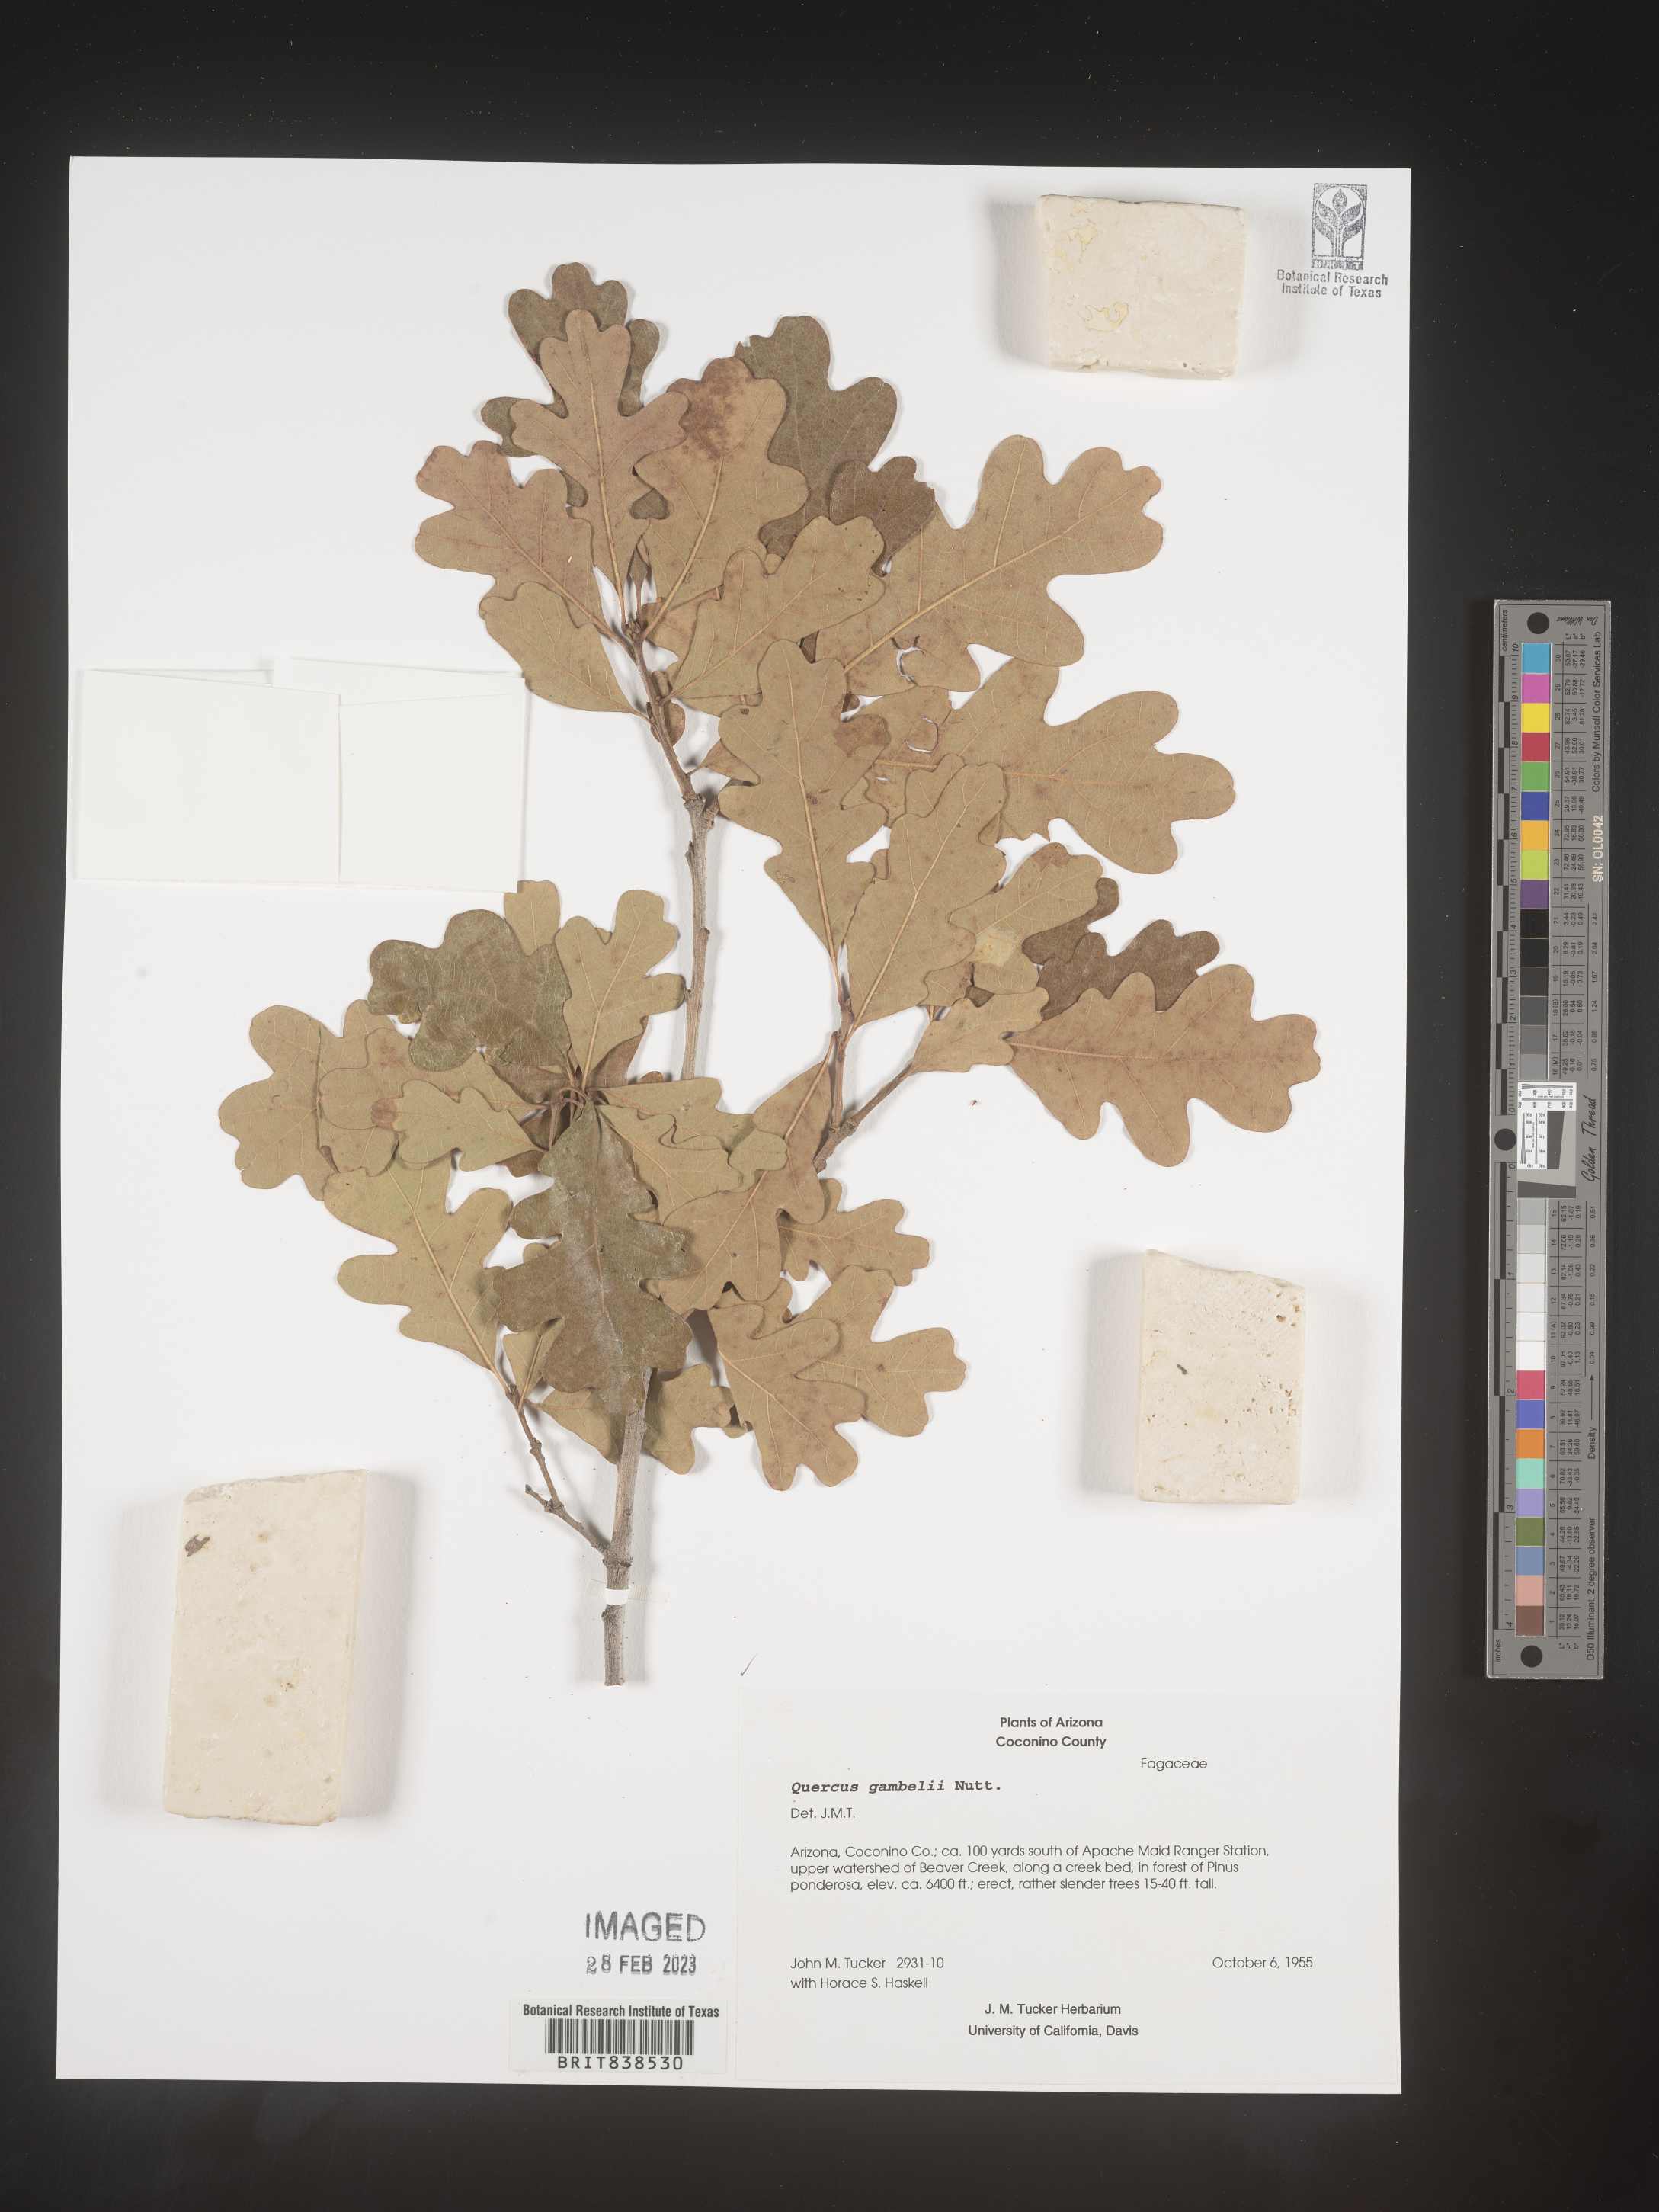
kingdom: Plantae
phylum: Tracheophyta
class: Magnoliopsida
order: Fagales
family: Fagaceae
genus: Quercus
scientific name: Quercus gambelii
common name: Gambel oak
